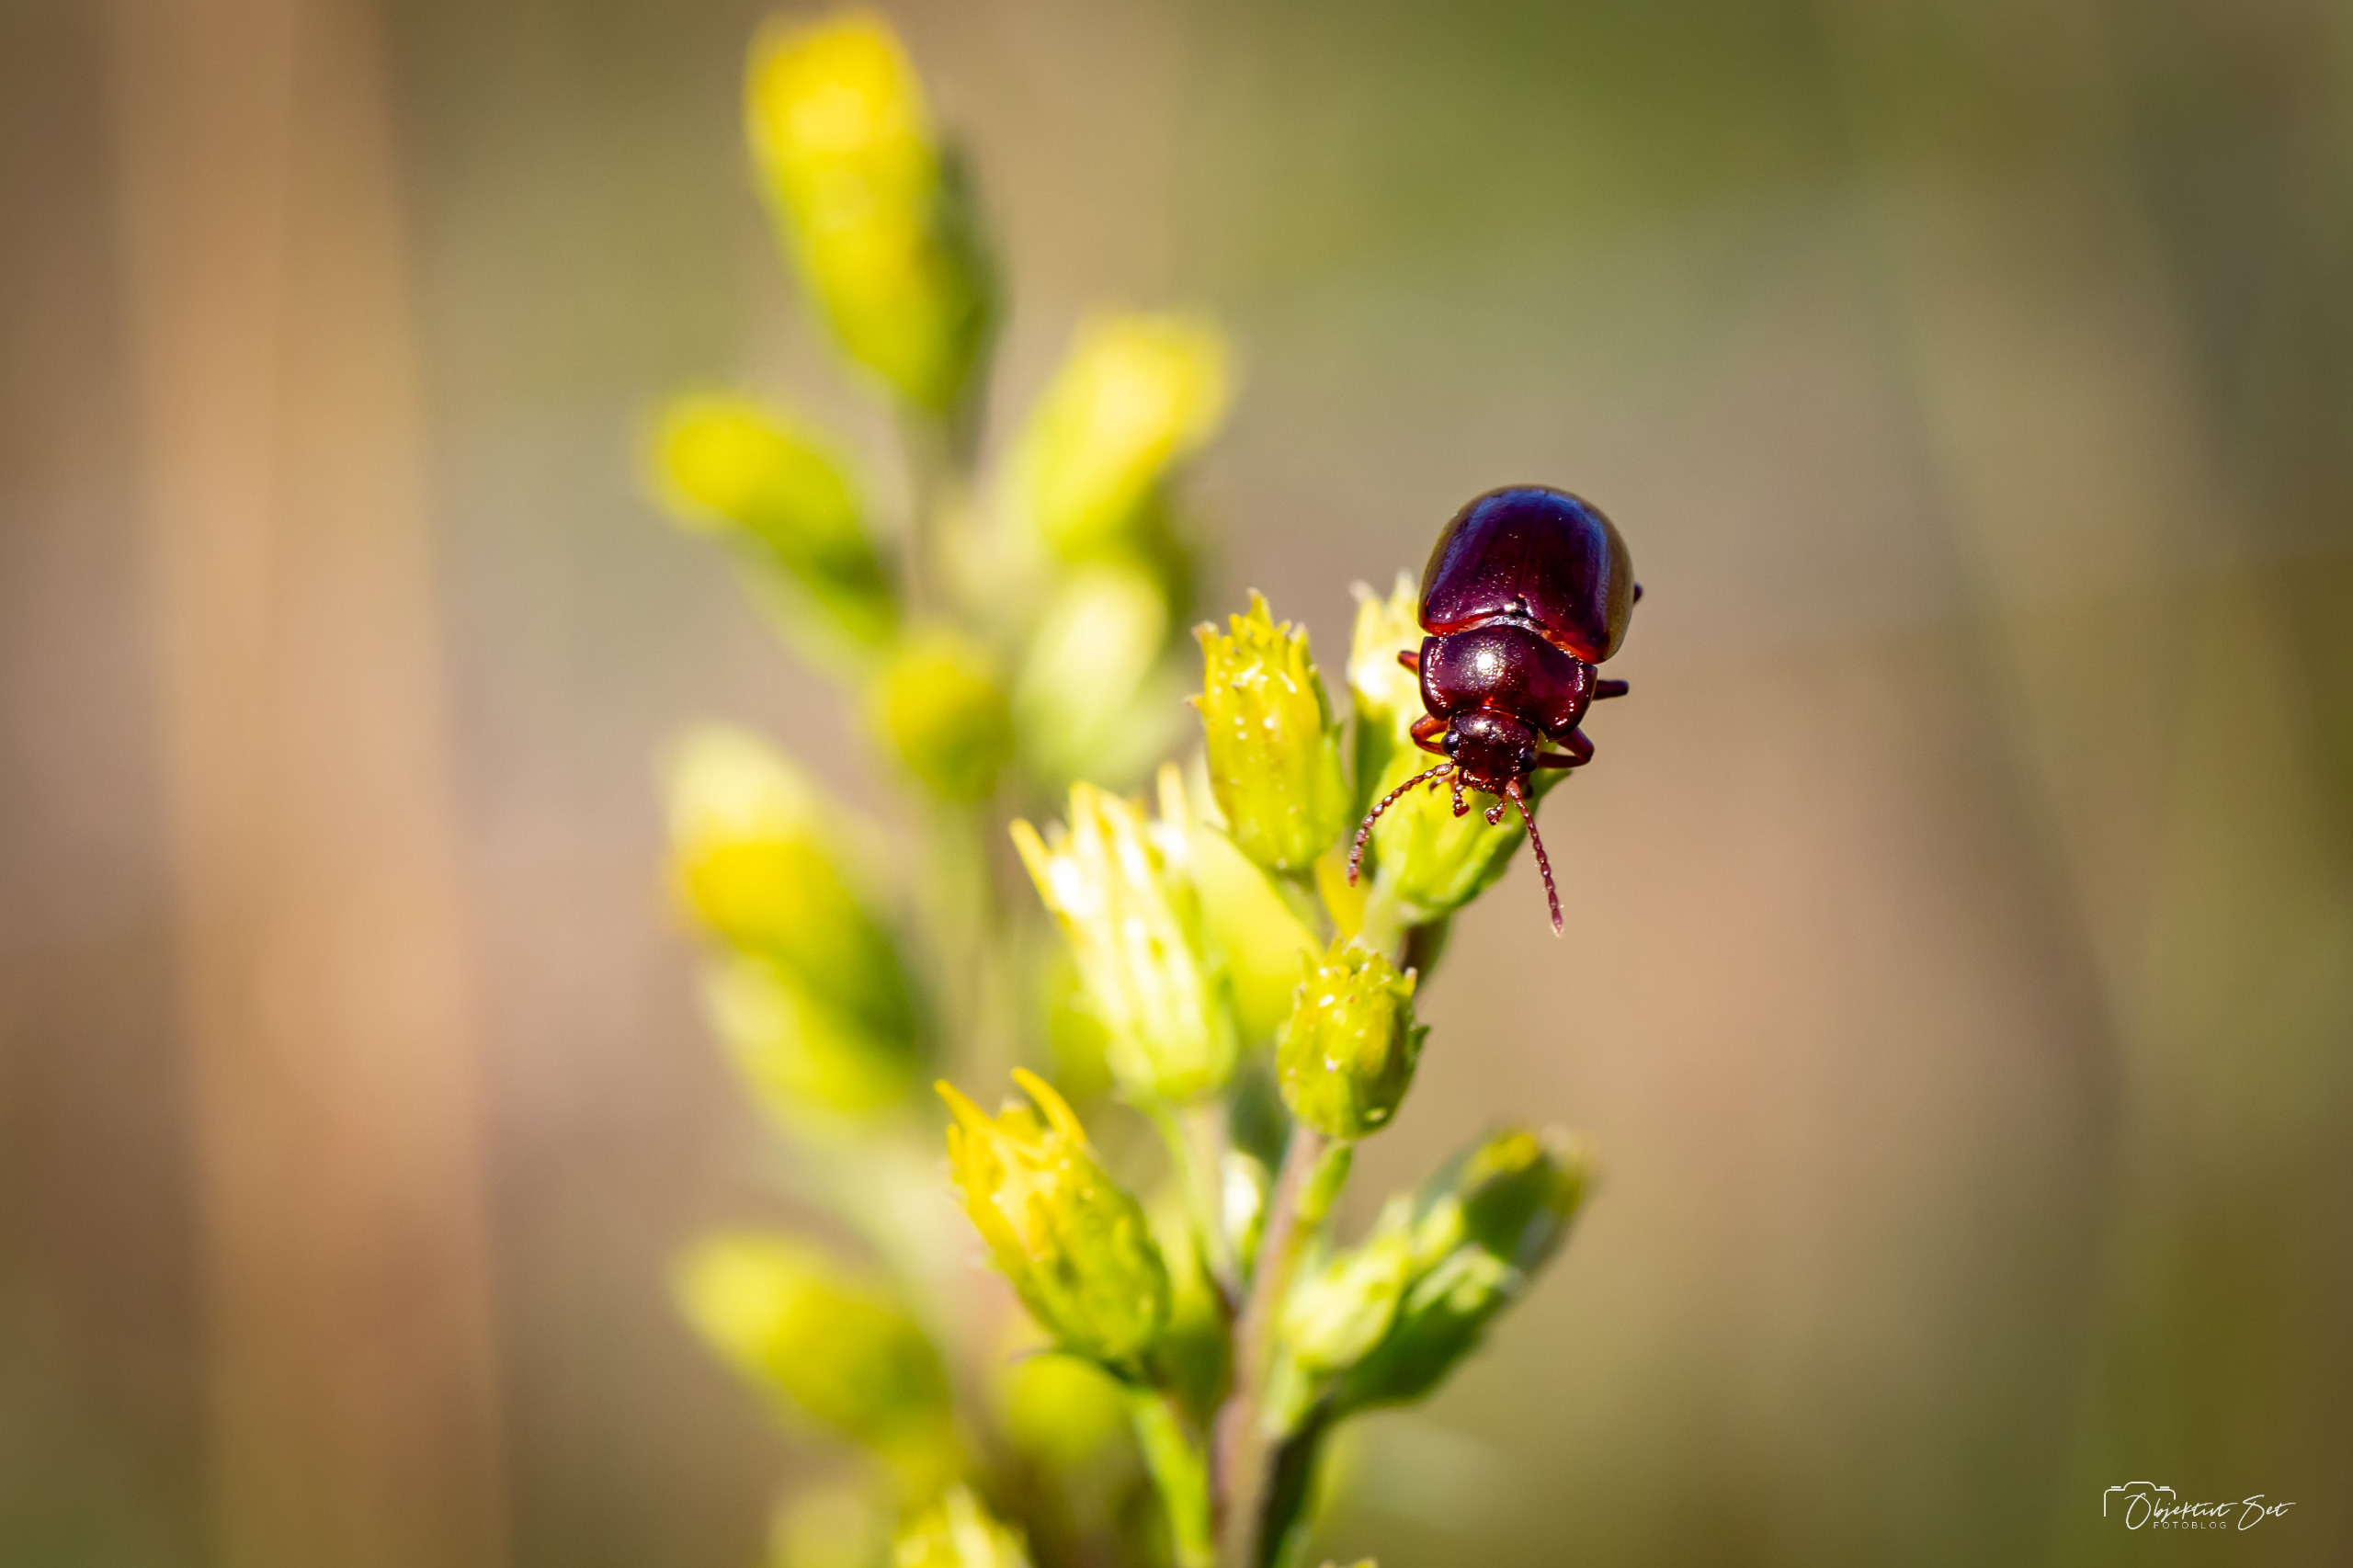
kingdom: Animalia
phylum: Arthropoda
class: Insecta
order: Coleoptera
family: Chrysomelidae
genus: Chrysolina
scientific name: Chrysolina staphylaea
